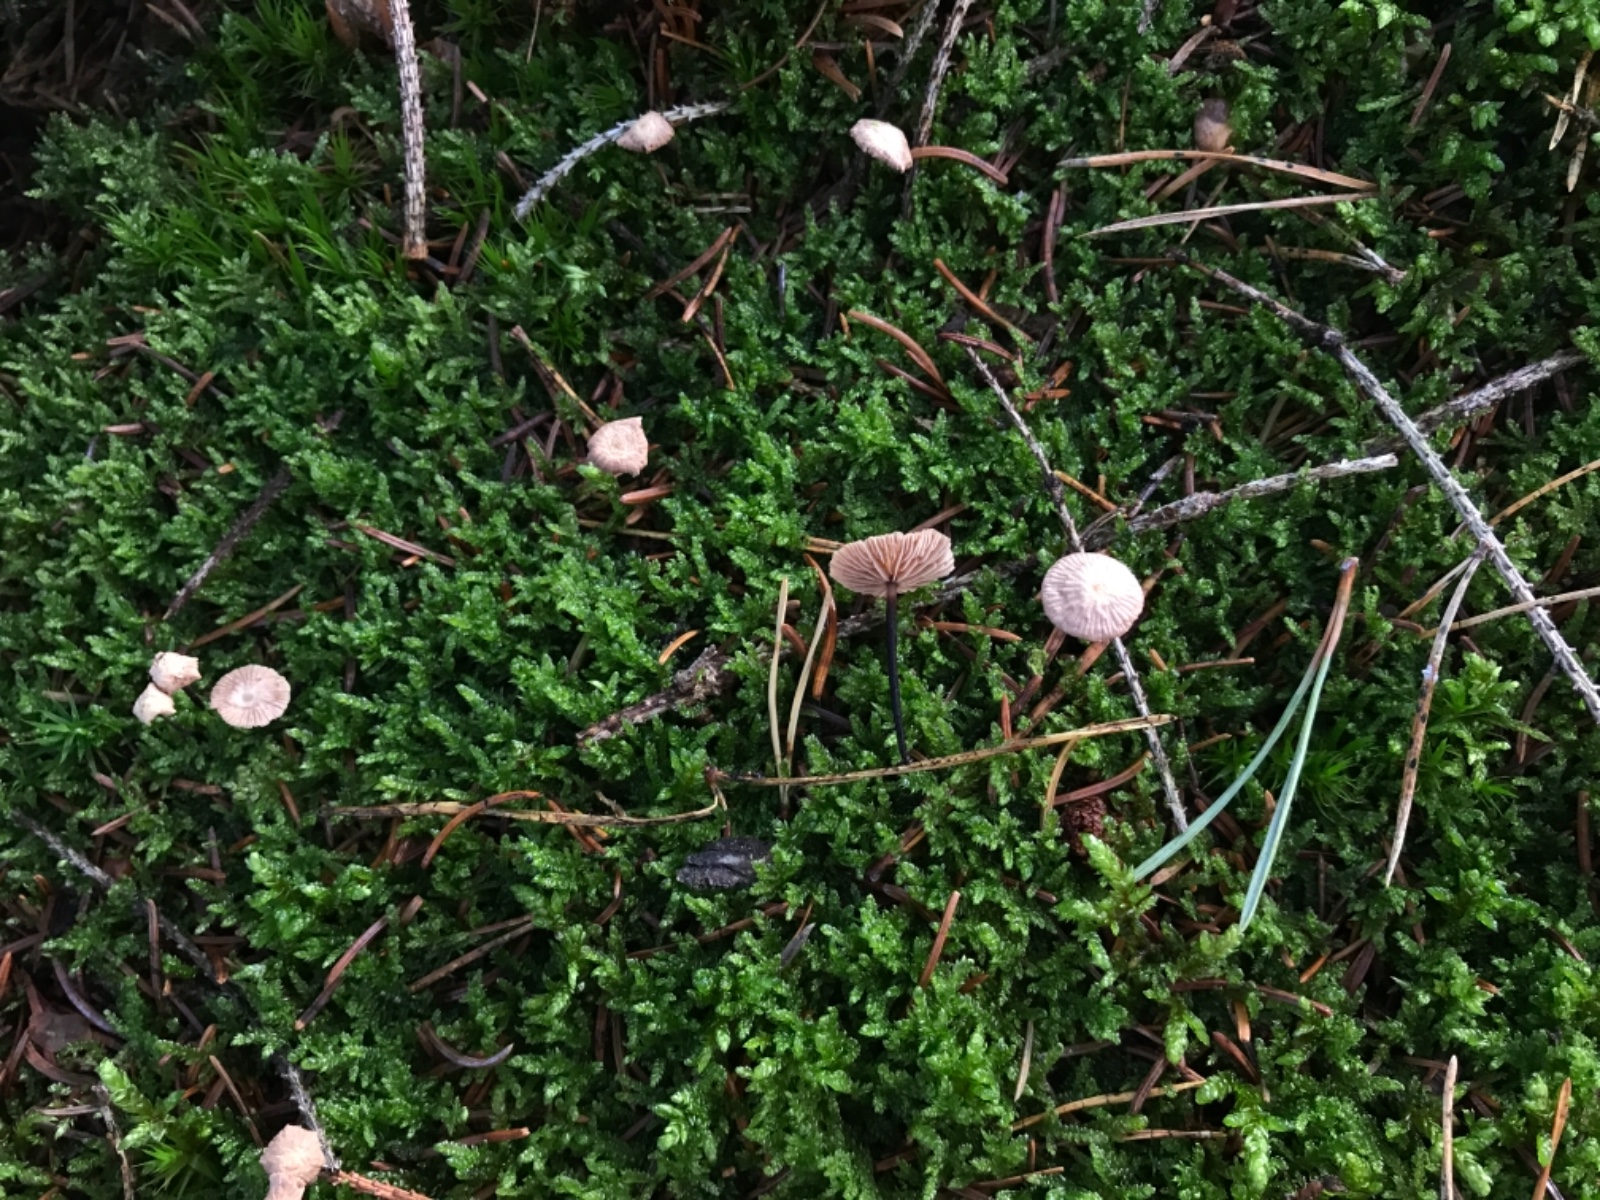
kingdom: Fungi
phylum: Basidiomycota
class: Agaricomycetes
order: Agaricales
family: Omphalotaceae
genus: Paragymnopus
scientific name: Paragymnopus perforans
